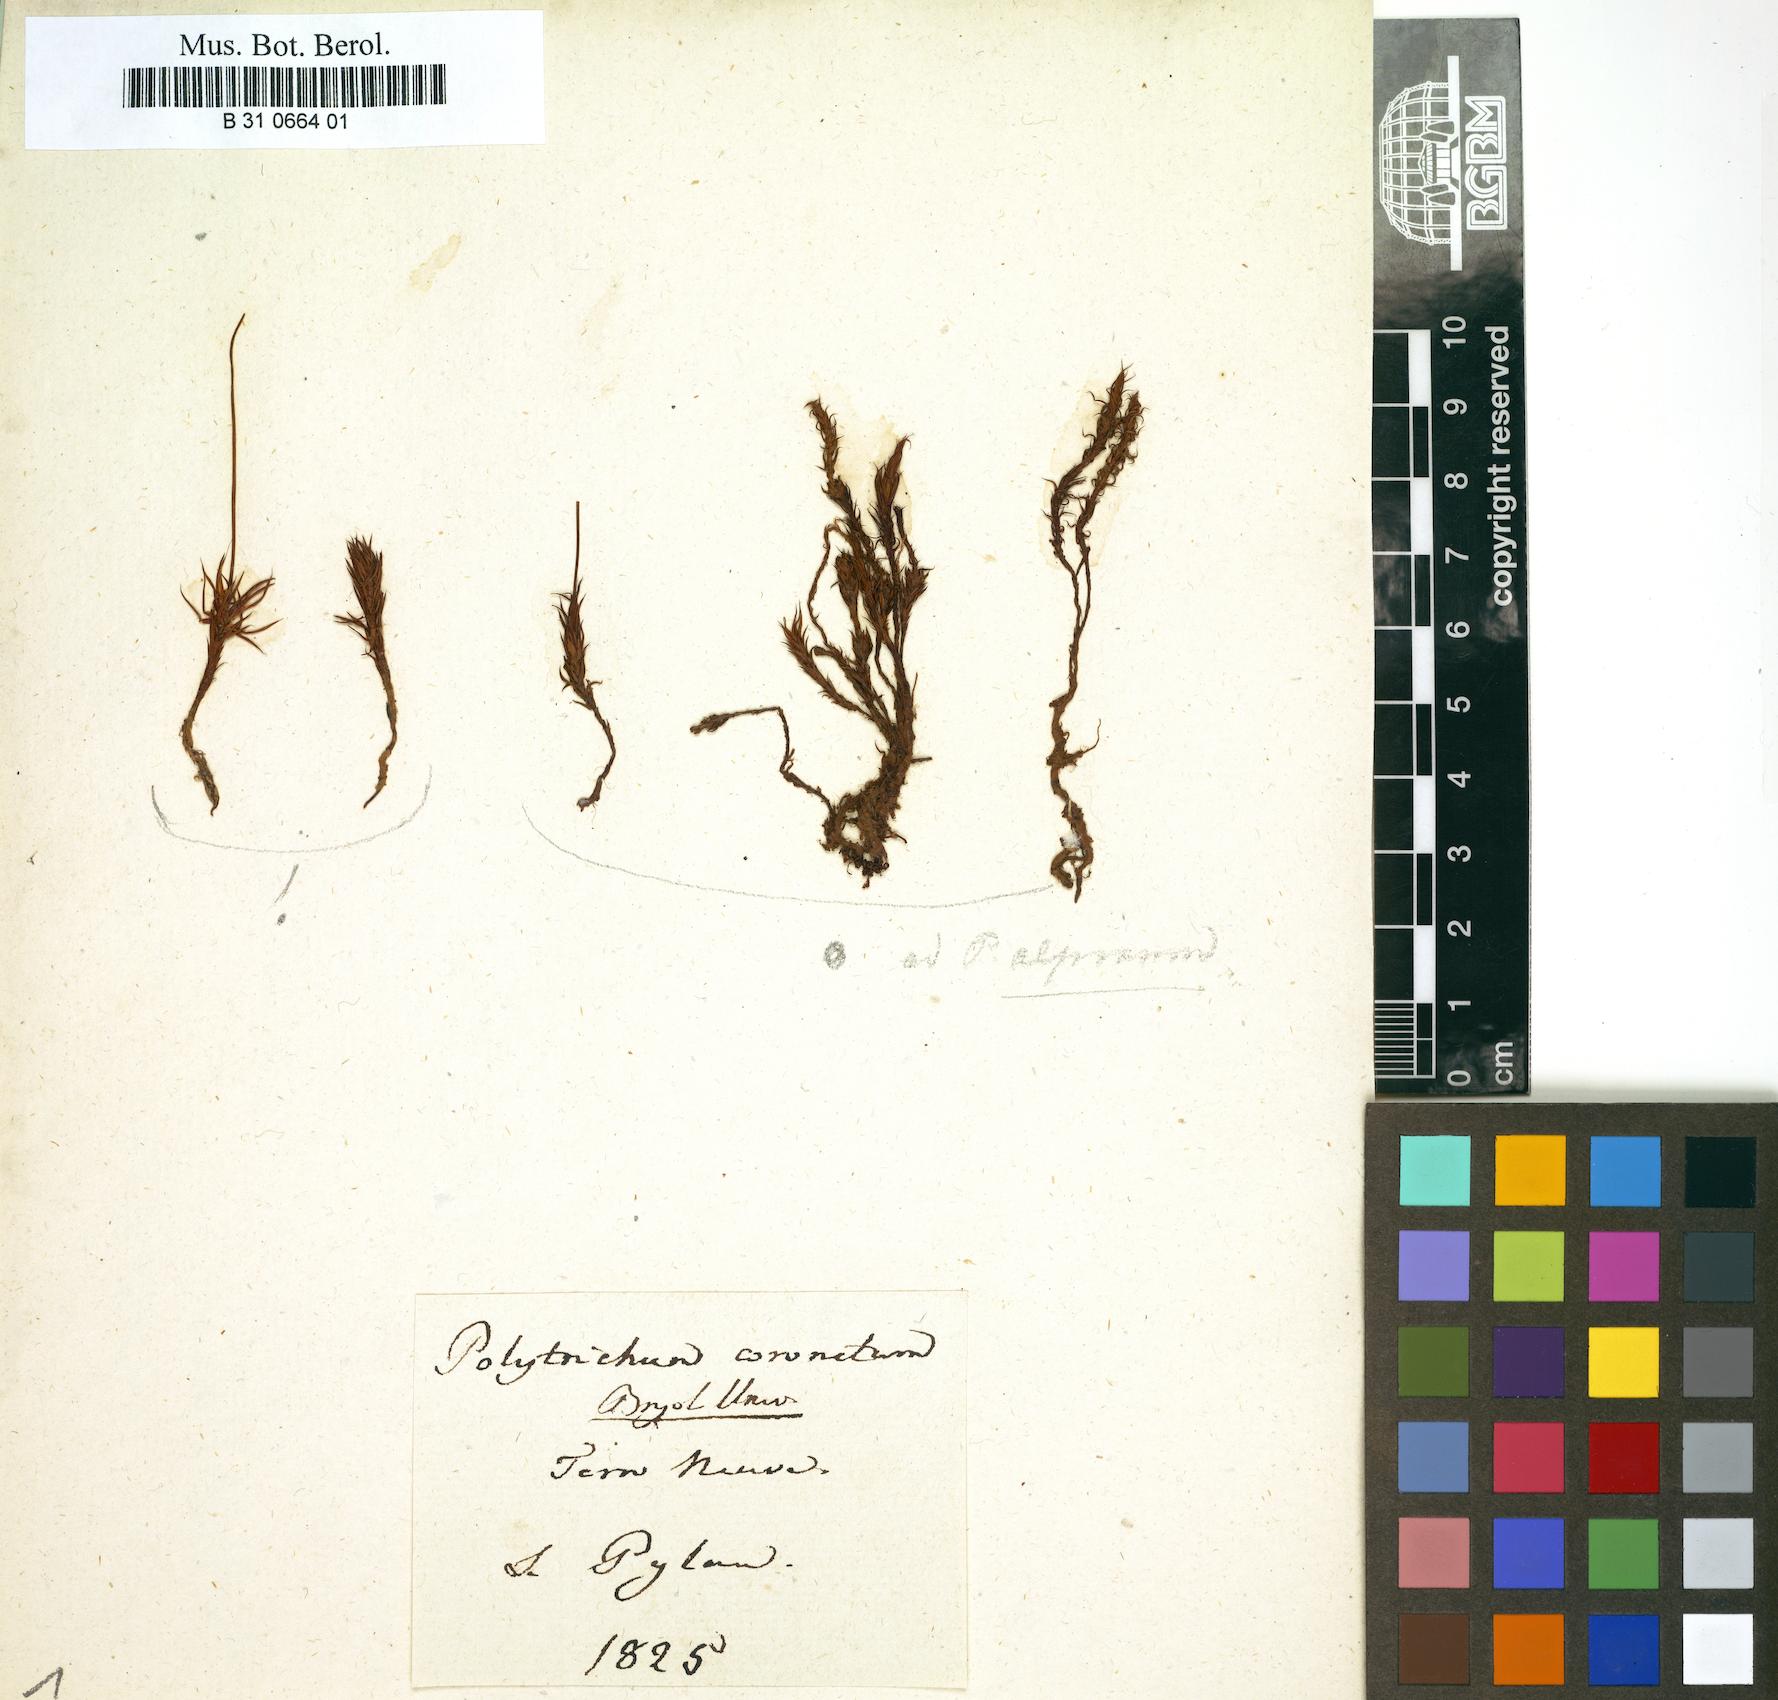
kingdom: Plantae
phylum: Bryophyta
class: Polytrichopsida
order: Polytrichales
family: Polytrichaceae
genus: Polytrichum
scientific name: Polytrichum formosum
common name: Bank haircap moss
